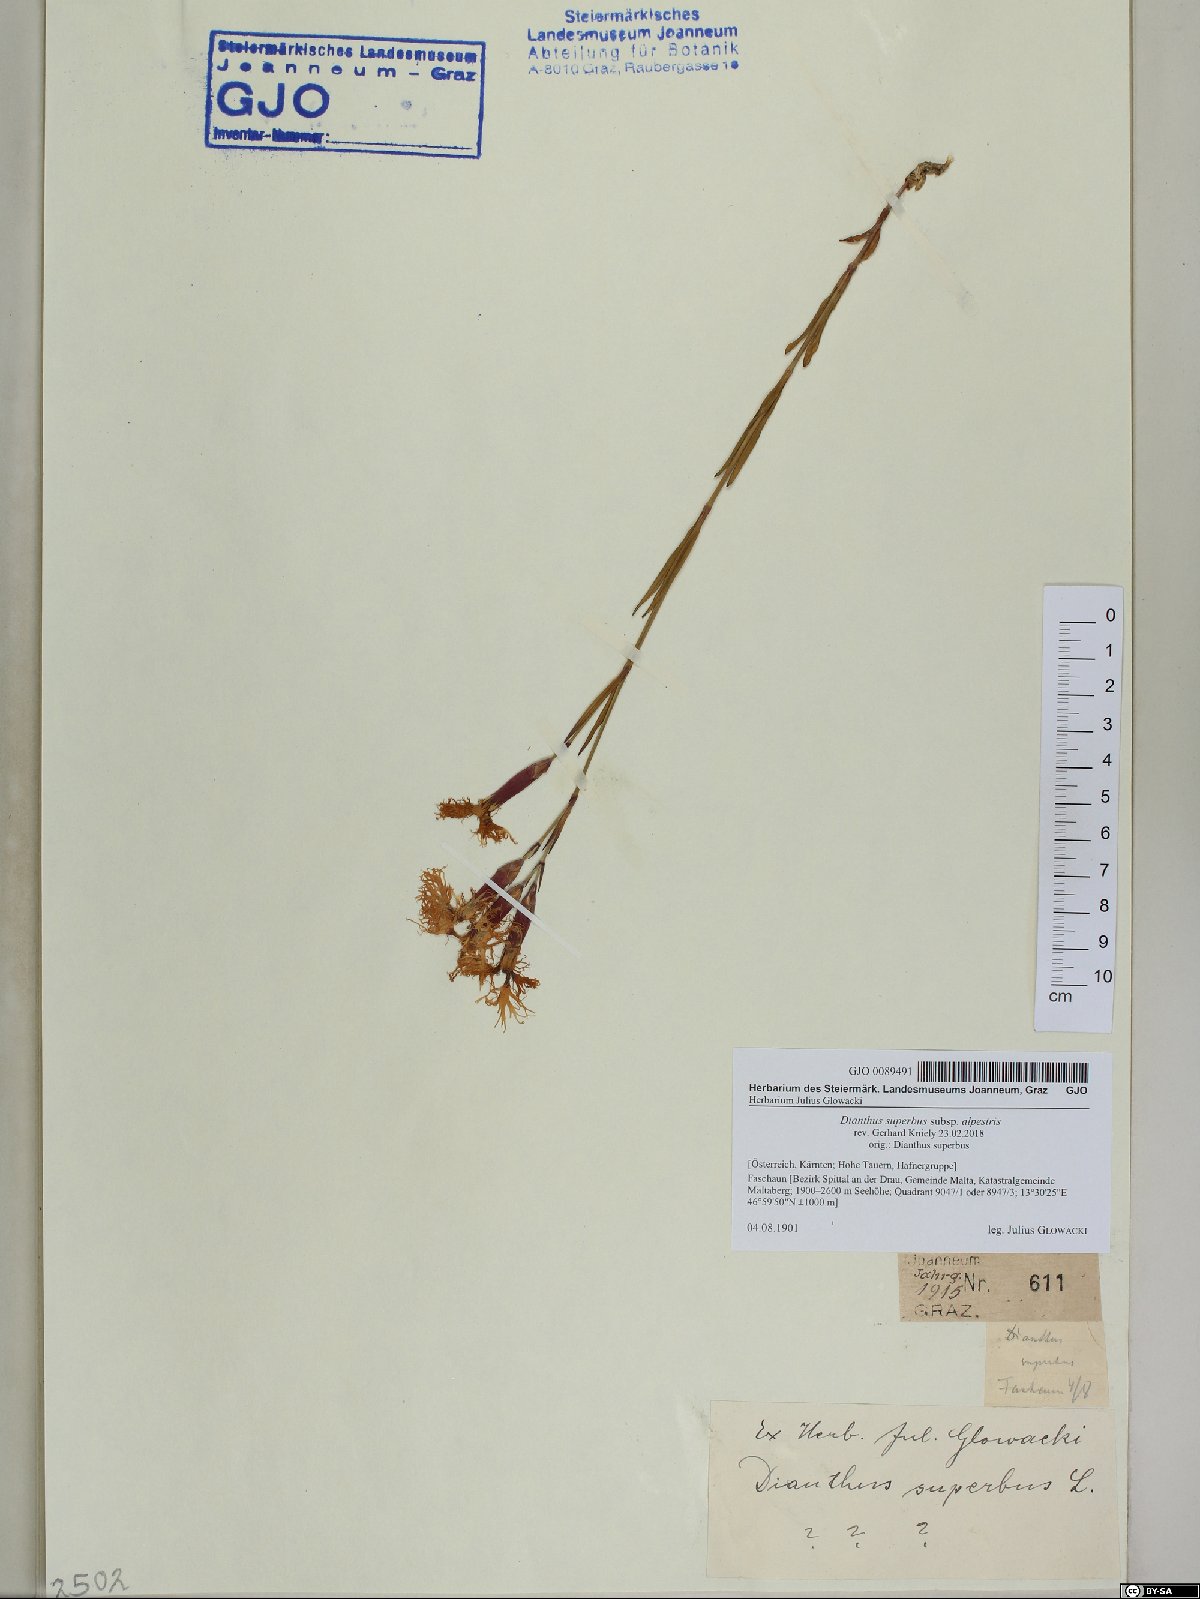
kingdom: Plantae
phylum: Tracheophyta
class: Magnoliopsida
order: Caryophyllales
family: Caryophyllaceae
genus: Dianthus
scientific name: Dianthus superbus
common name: Fringed pink
